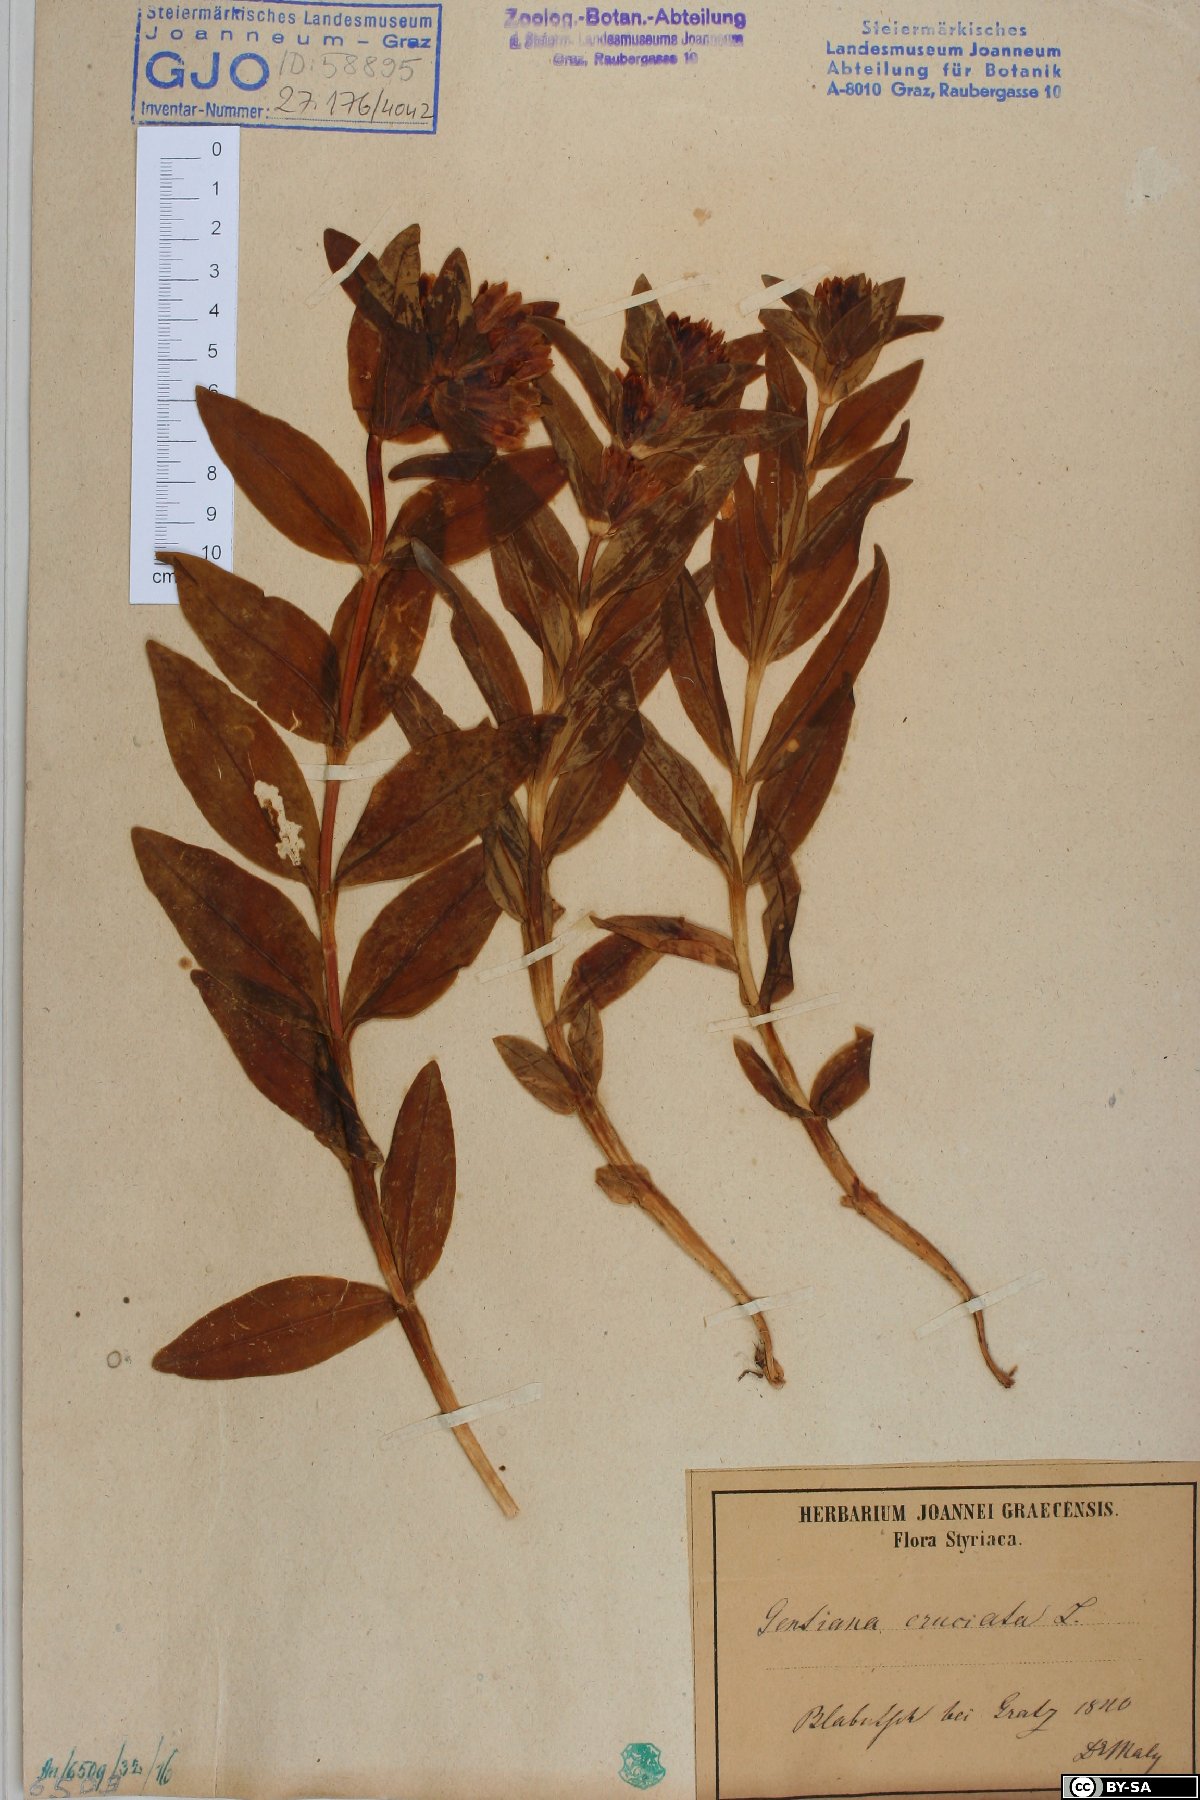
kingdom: Plantae
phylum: Tracheophyta
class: Magnoliopsida
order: Gentianales
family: Gentianaceae
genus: Gentiana
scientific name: Gentiana cruciata
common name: Cross gentian
